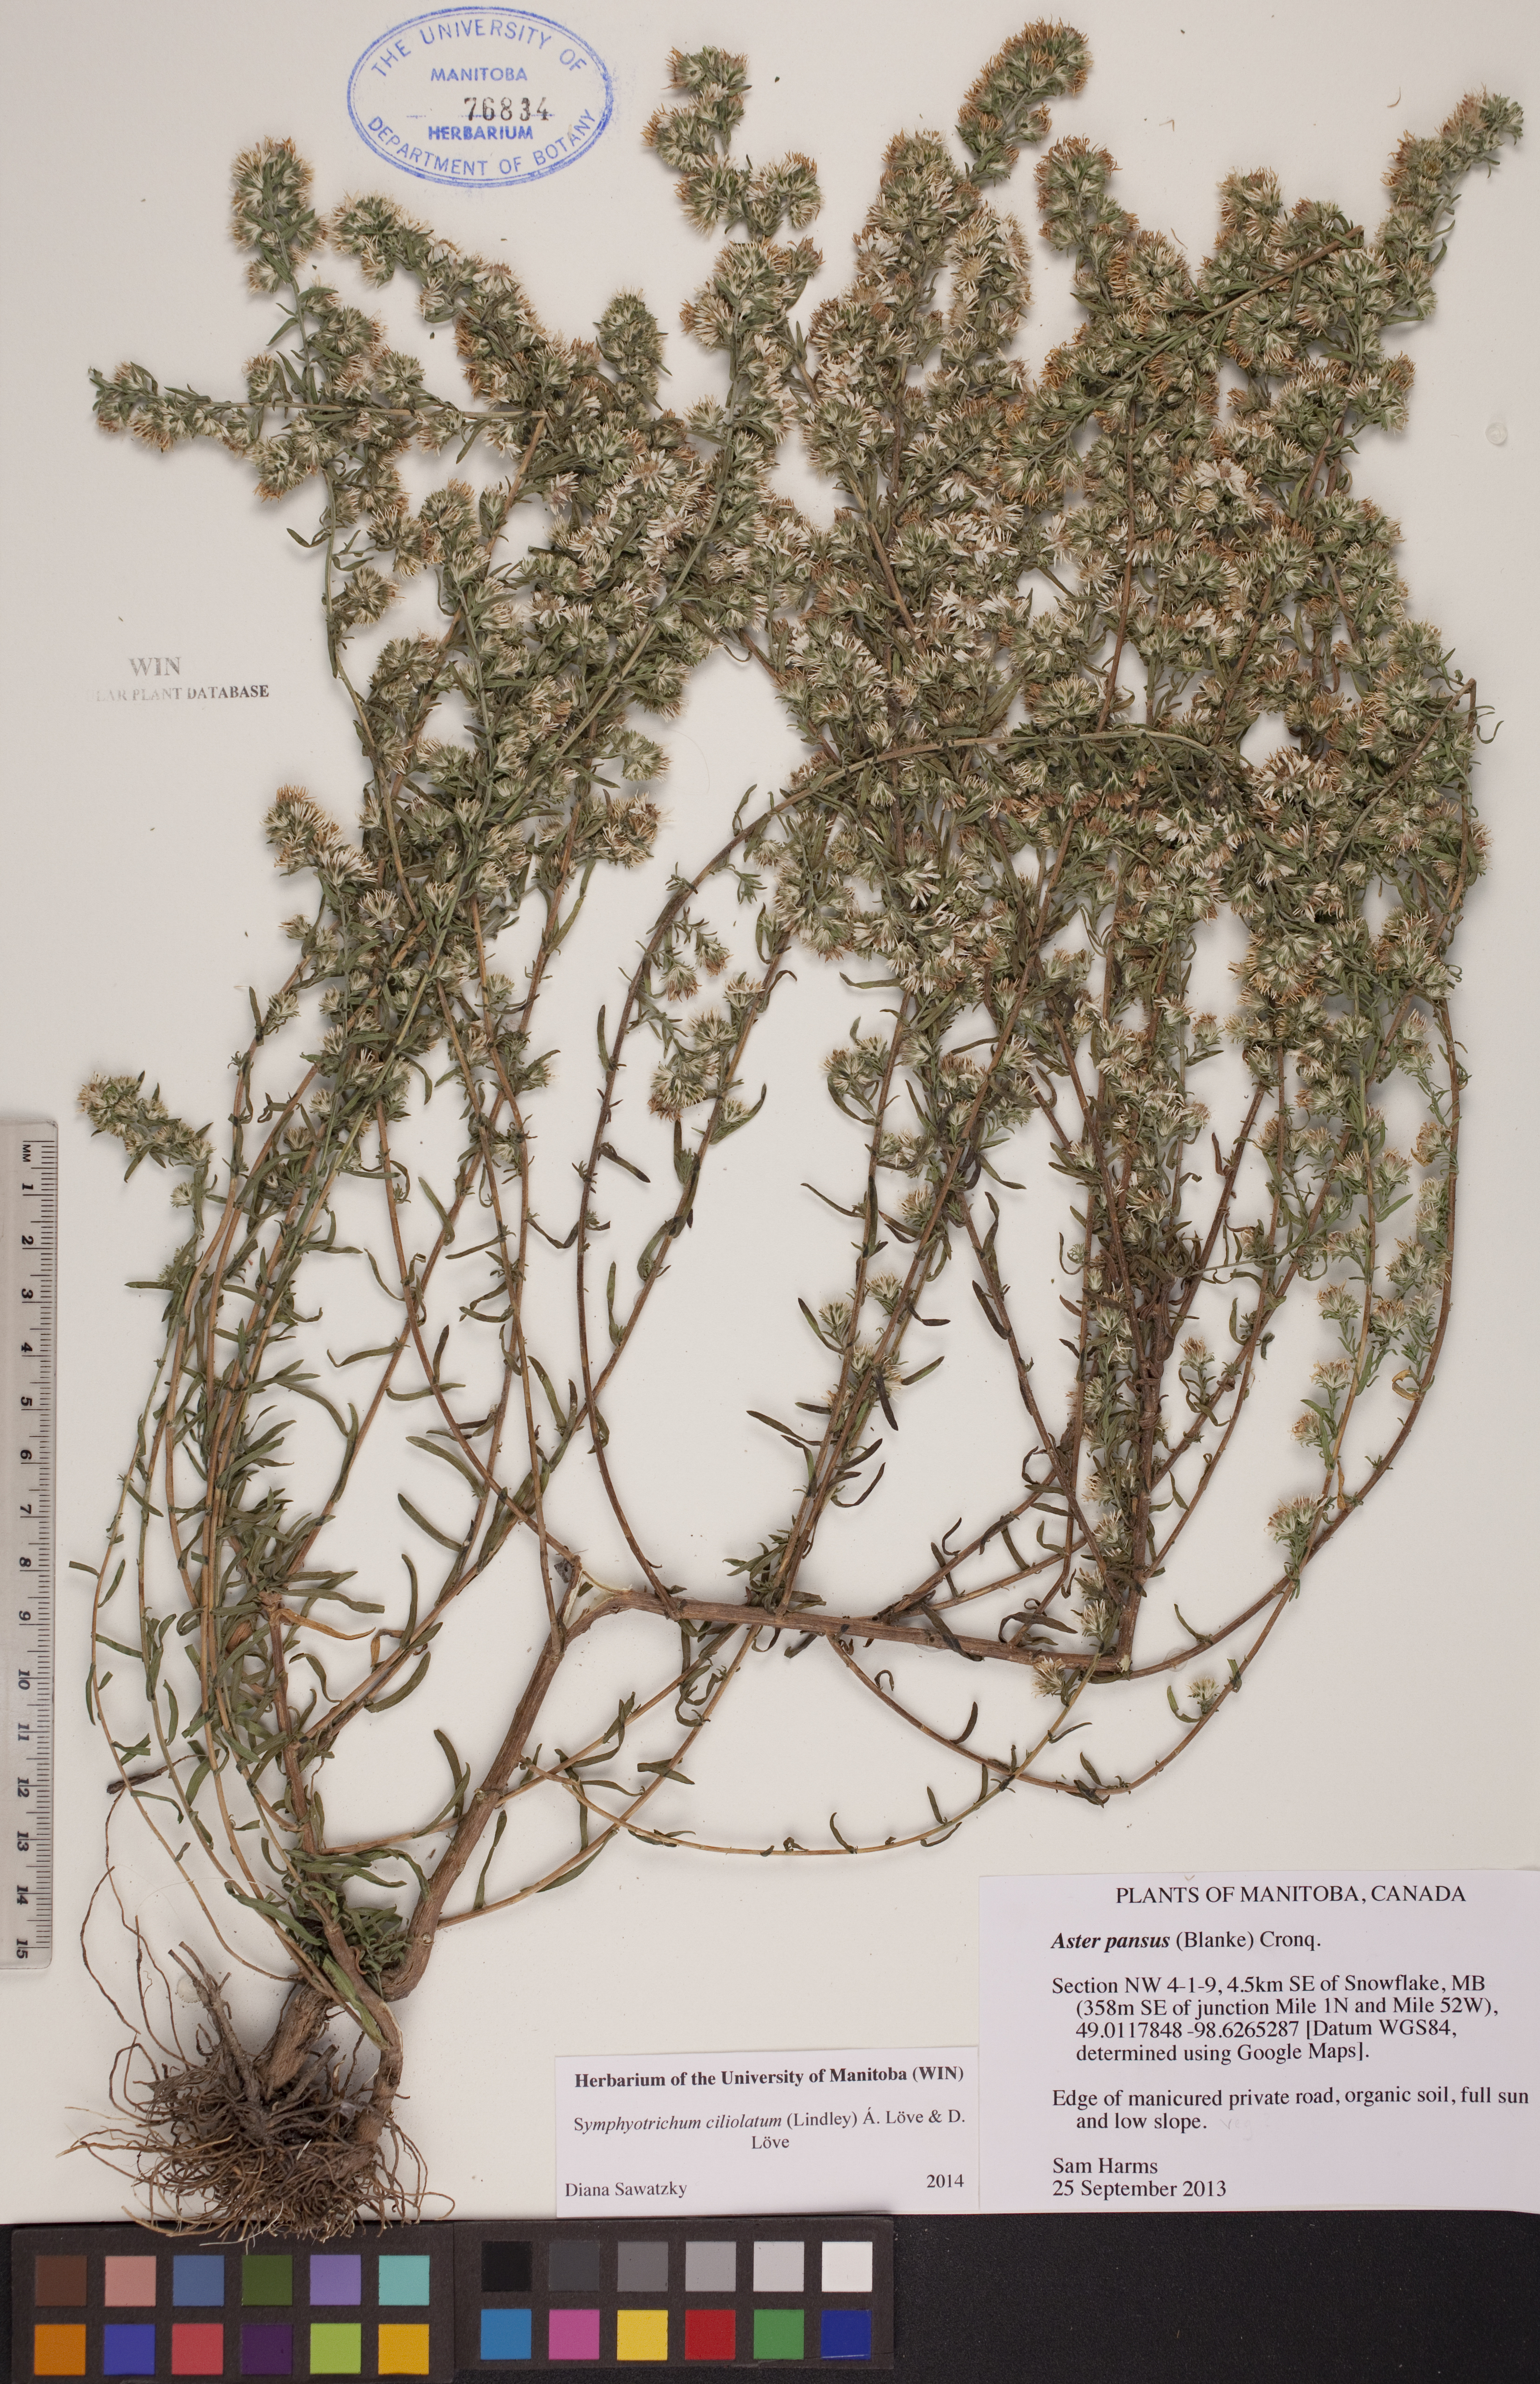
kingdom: Plantae
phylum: Tracheophyta
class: Magnoliopsida
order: Asterales
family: Asteraceae
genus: Symphyotrichum
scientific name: Symphyotrichum ericoides
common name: Heath aster
